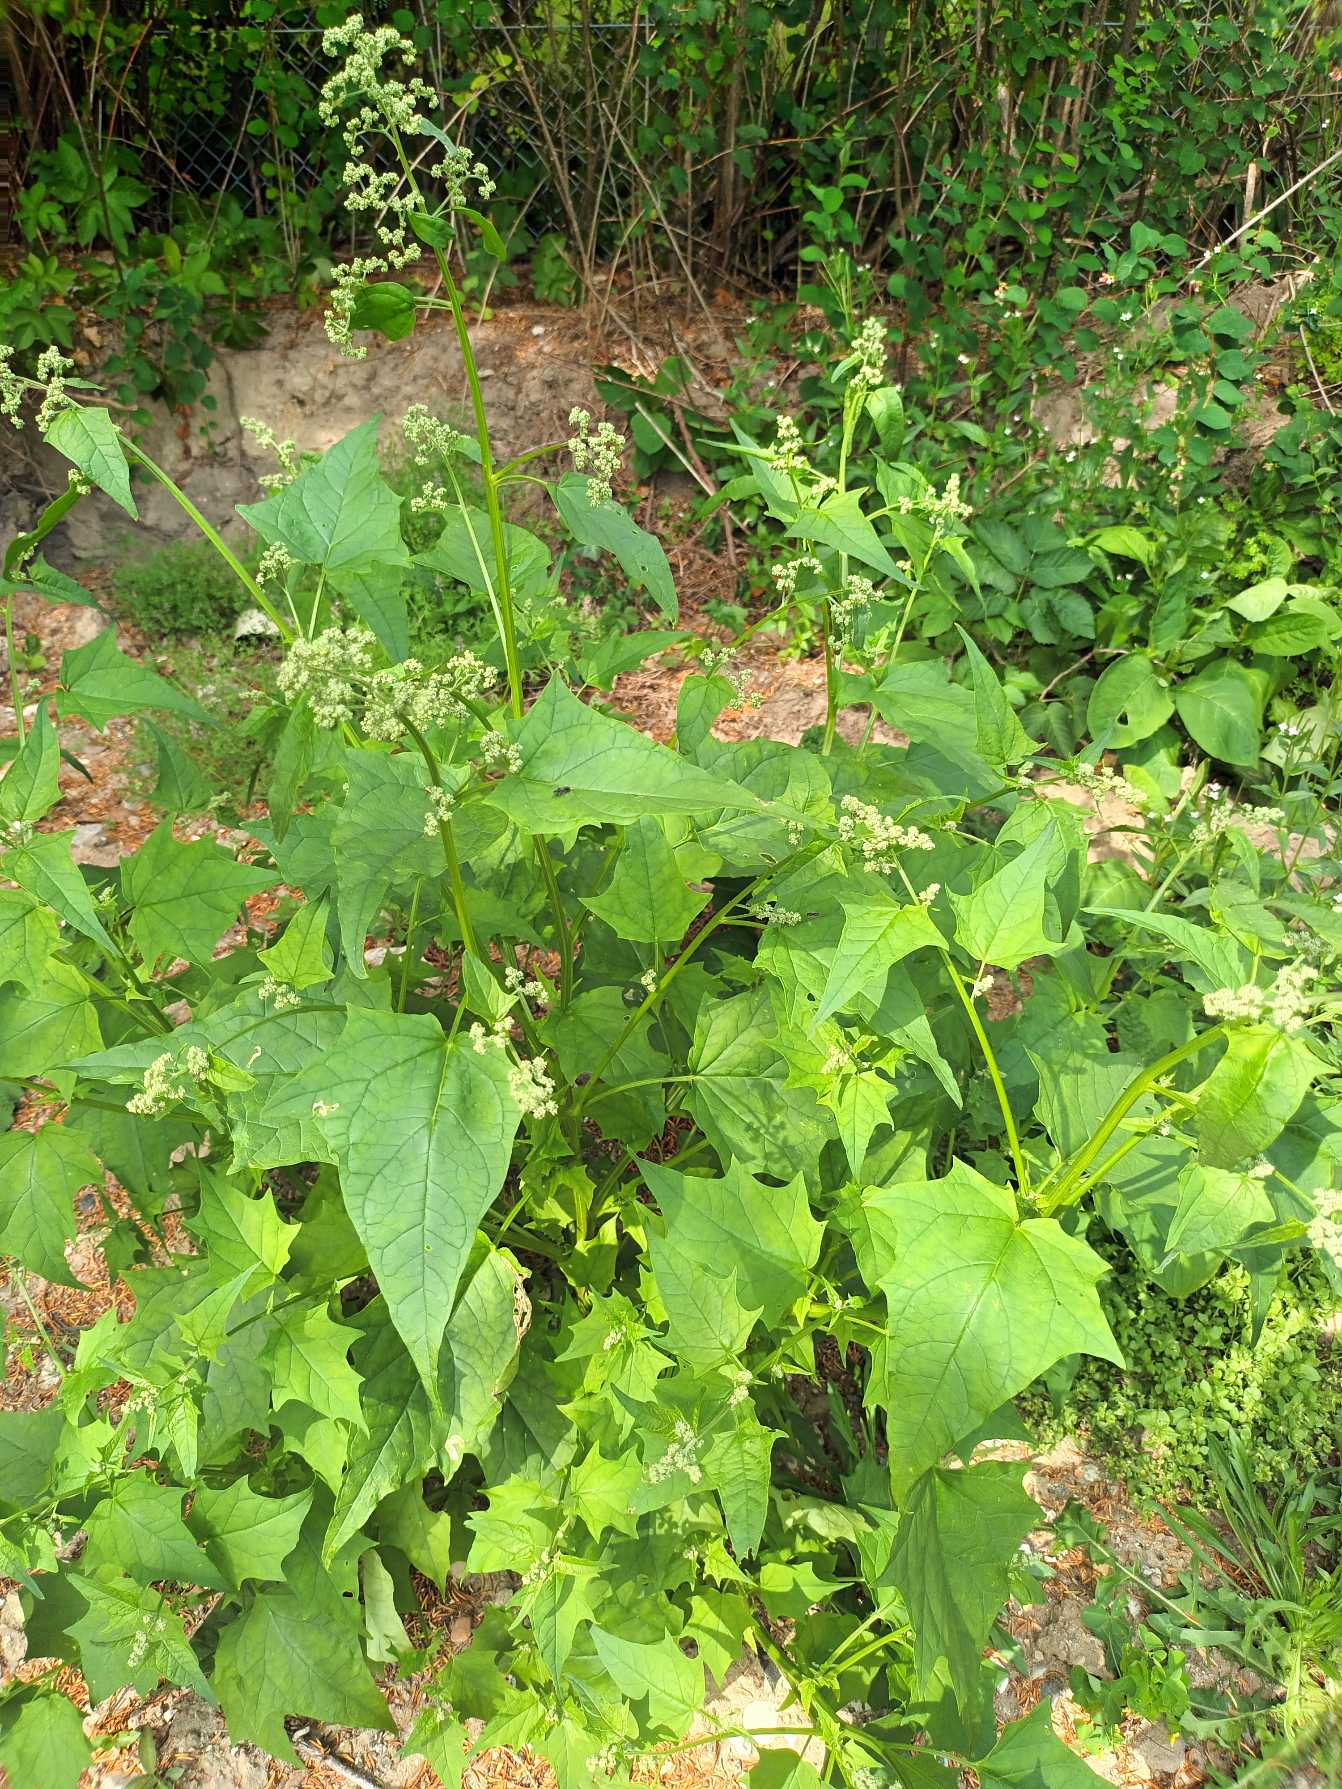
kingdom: Plantae
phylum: Tracheophyta
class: Magnoliopsida
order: Caryophyllales
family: Amaranthaceae
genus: Chenopodiastrum
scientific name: Chenopodiastrum hybridum
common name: Hjertebladet gåsefod
